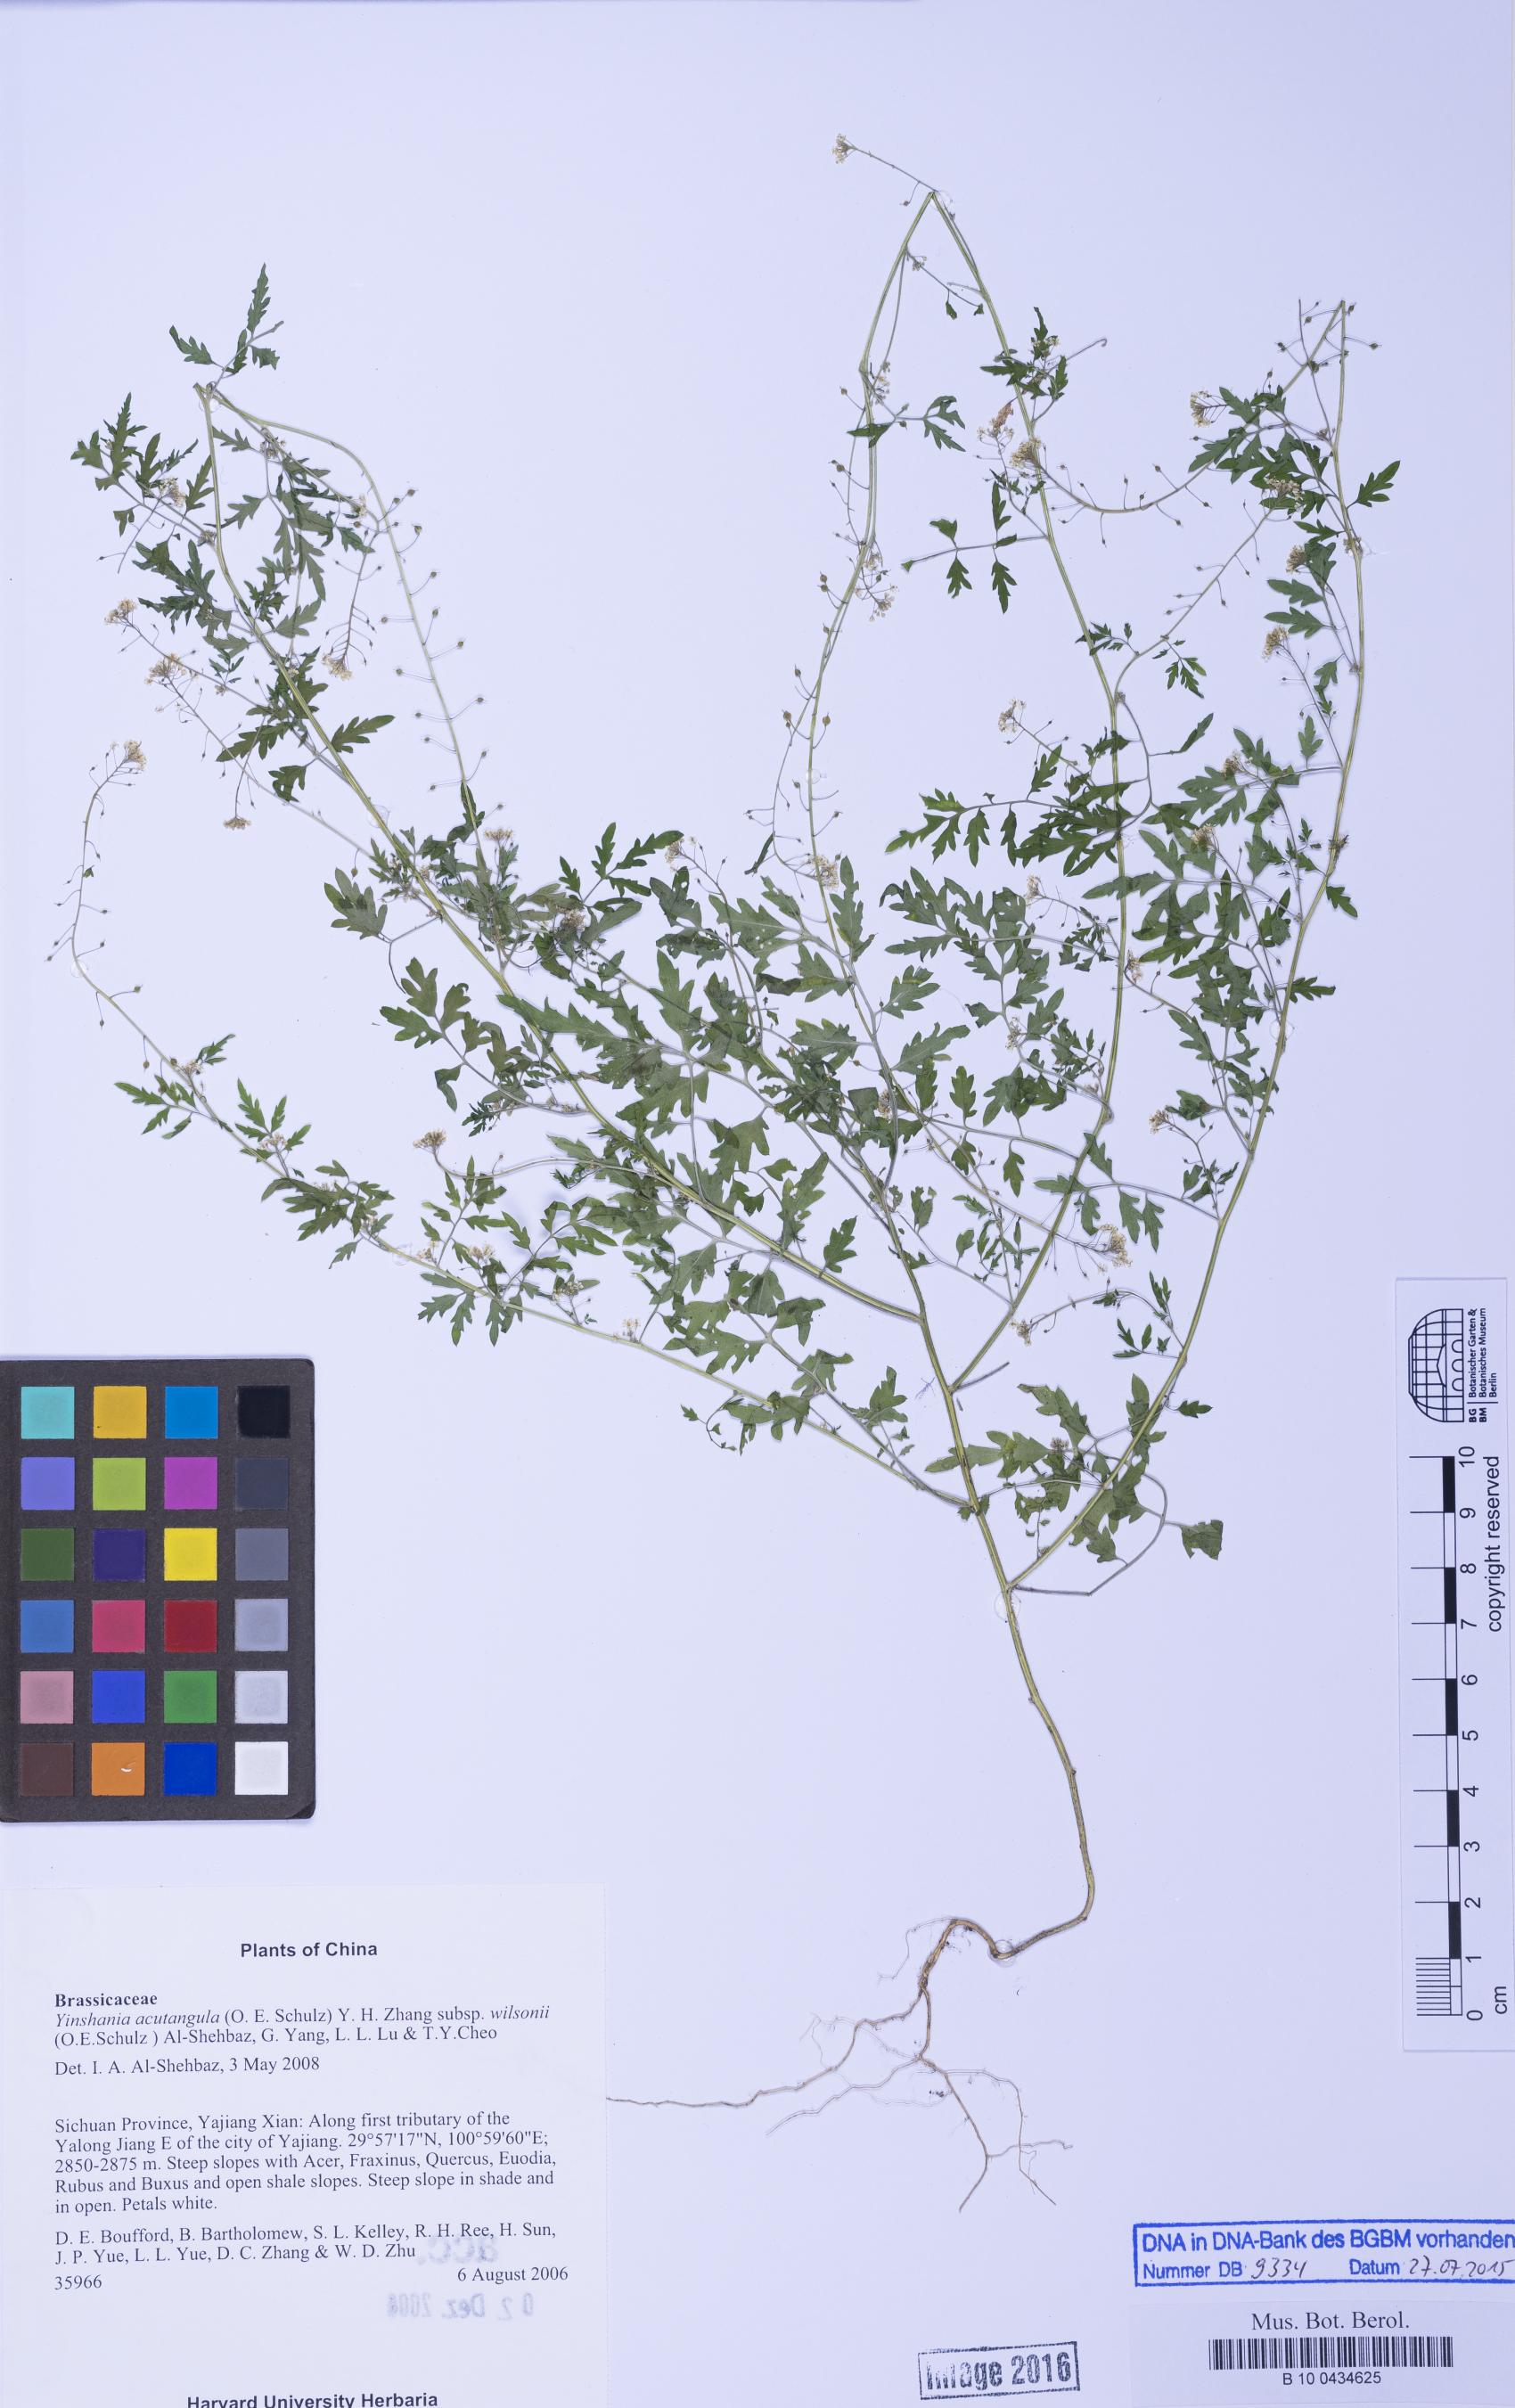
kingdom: Plantae
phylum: Tracheophyta
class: Magnoliopsida
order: Brassicales
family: Brassicaceae
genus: Yinshania
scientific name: Yinshania acutangula
